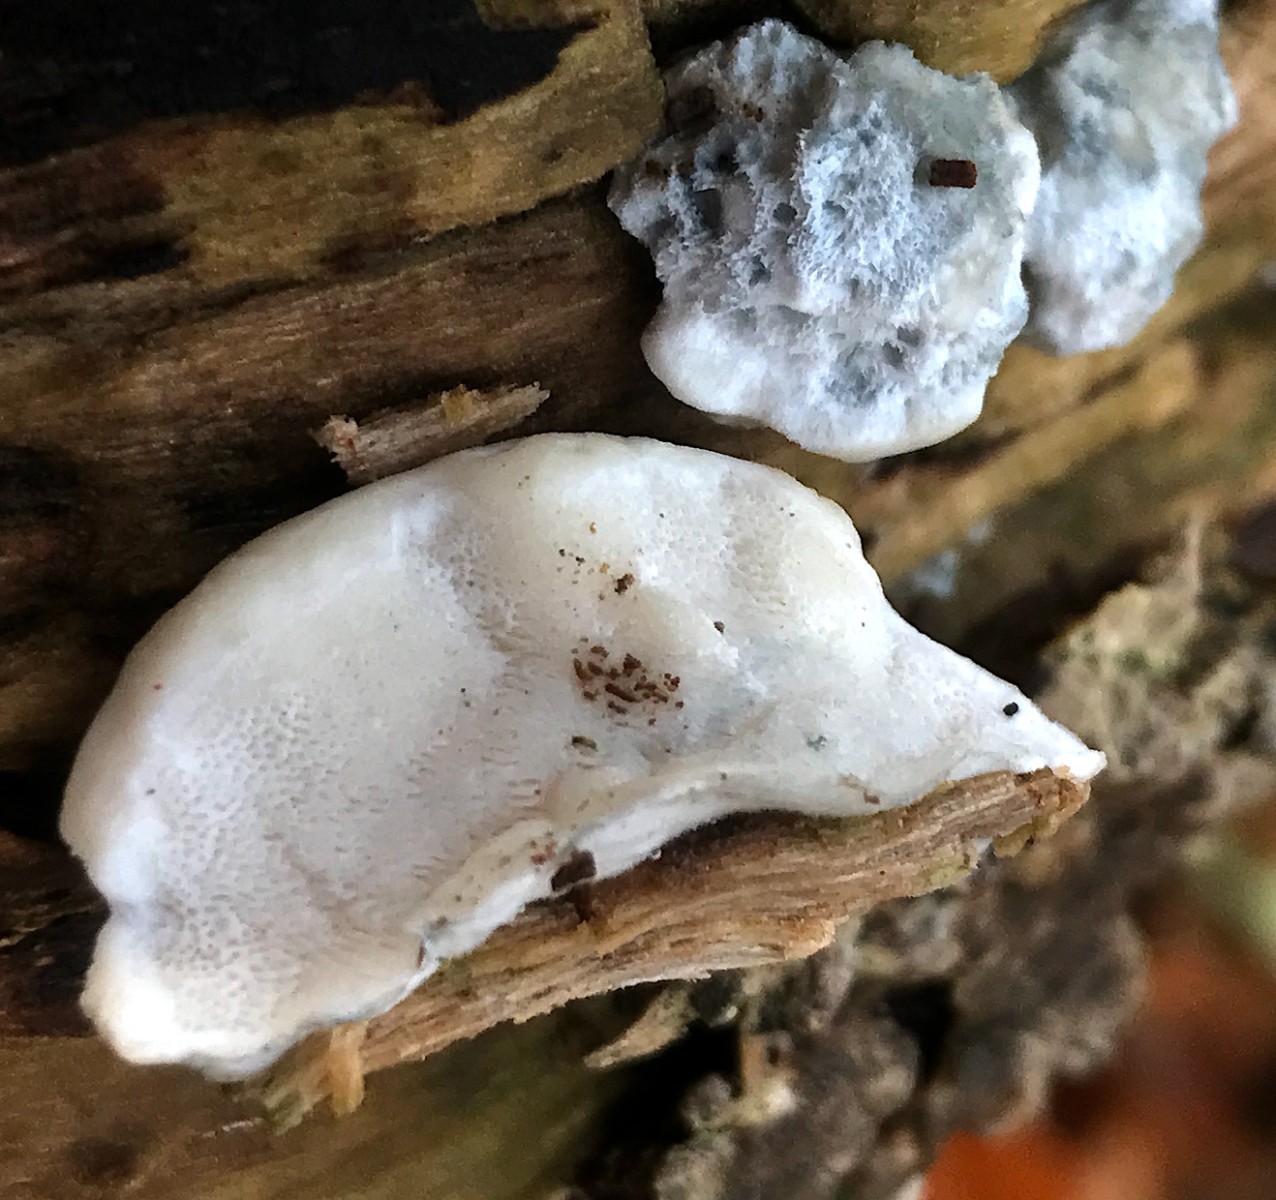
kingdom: Fungi
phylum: Basidiomycota
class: Agaricomycetes
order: Polyporales
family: Polyporaceae
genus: Cyanosporus
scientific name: Cyanosporus caesius
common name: blålig kødporesvamp
